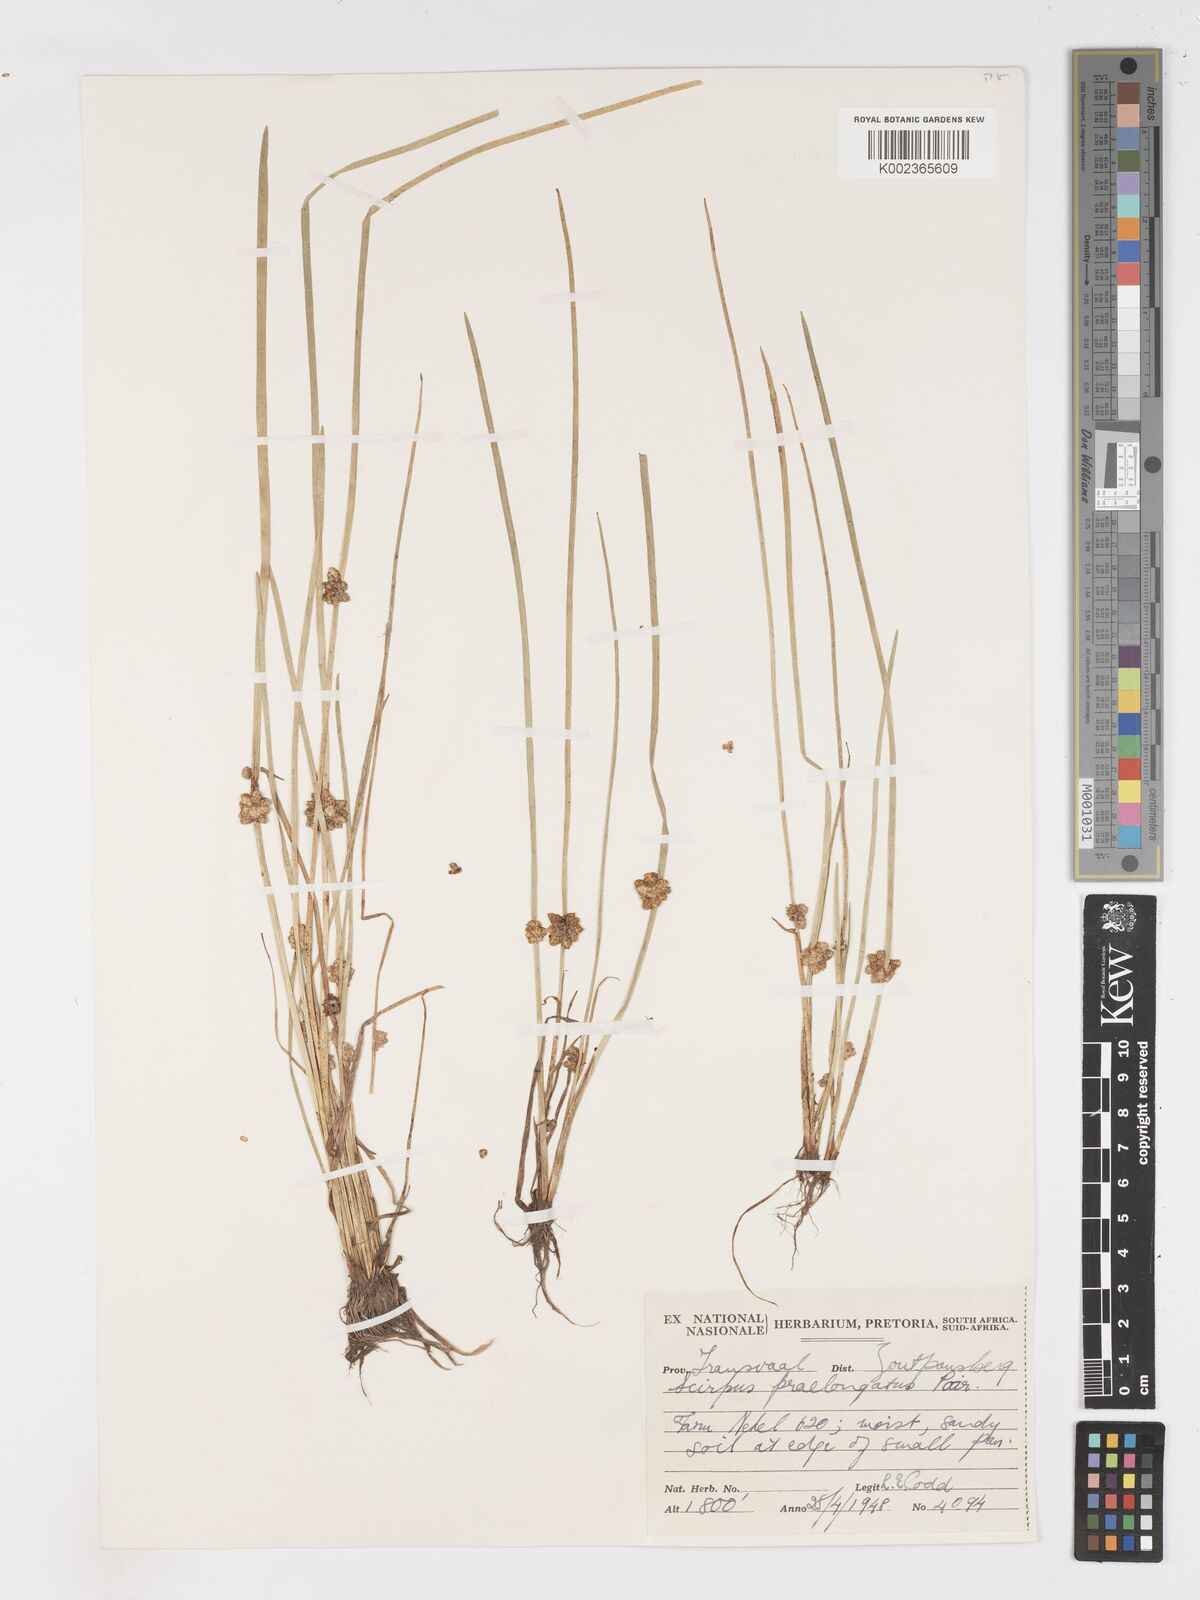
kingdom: Plantae
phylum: Tracheophyta
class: Liliopsida
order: Poales
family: Cyperaceae
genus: Schoenoplectiella
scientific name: Schoenoplectiella praelongata
